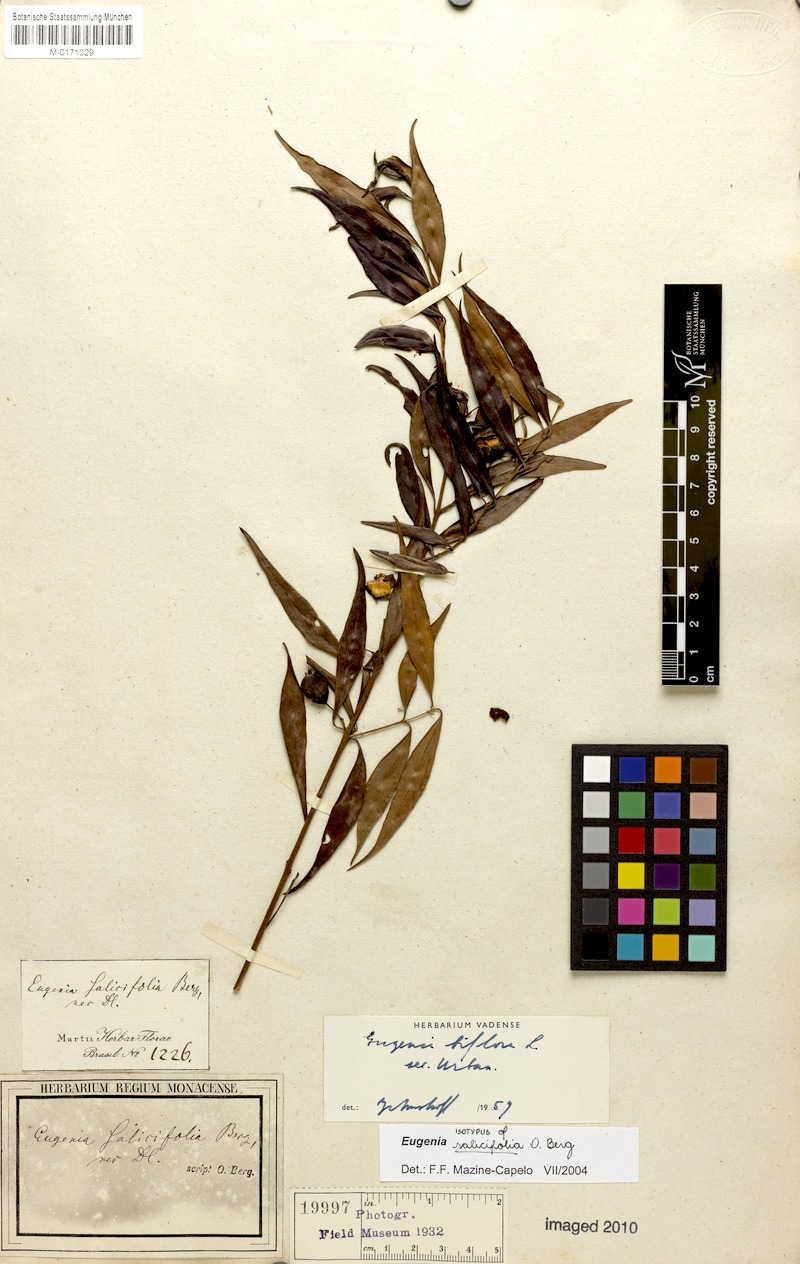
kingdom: Plantae
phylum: Tracheophyta
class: Magnoliopsida
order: Myrtales
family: Myrtaceae
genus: Eugenia
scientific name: Eugenia biflora
